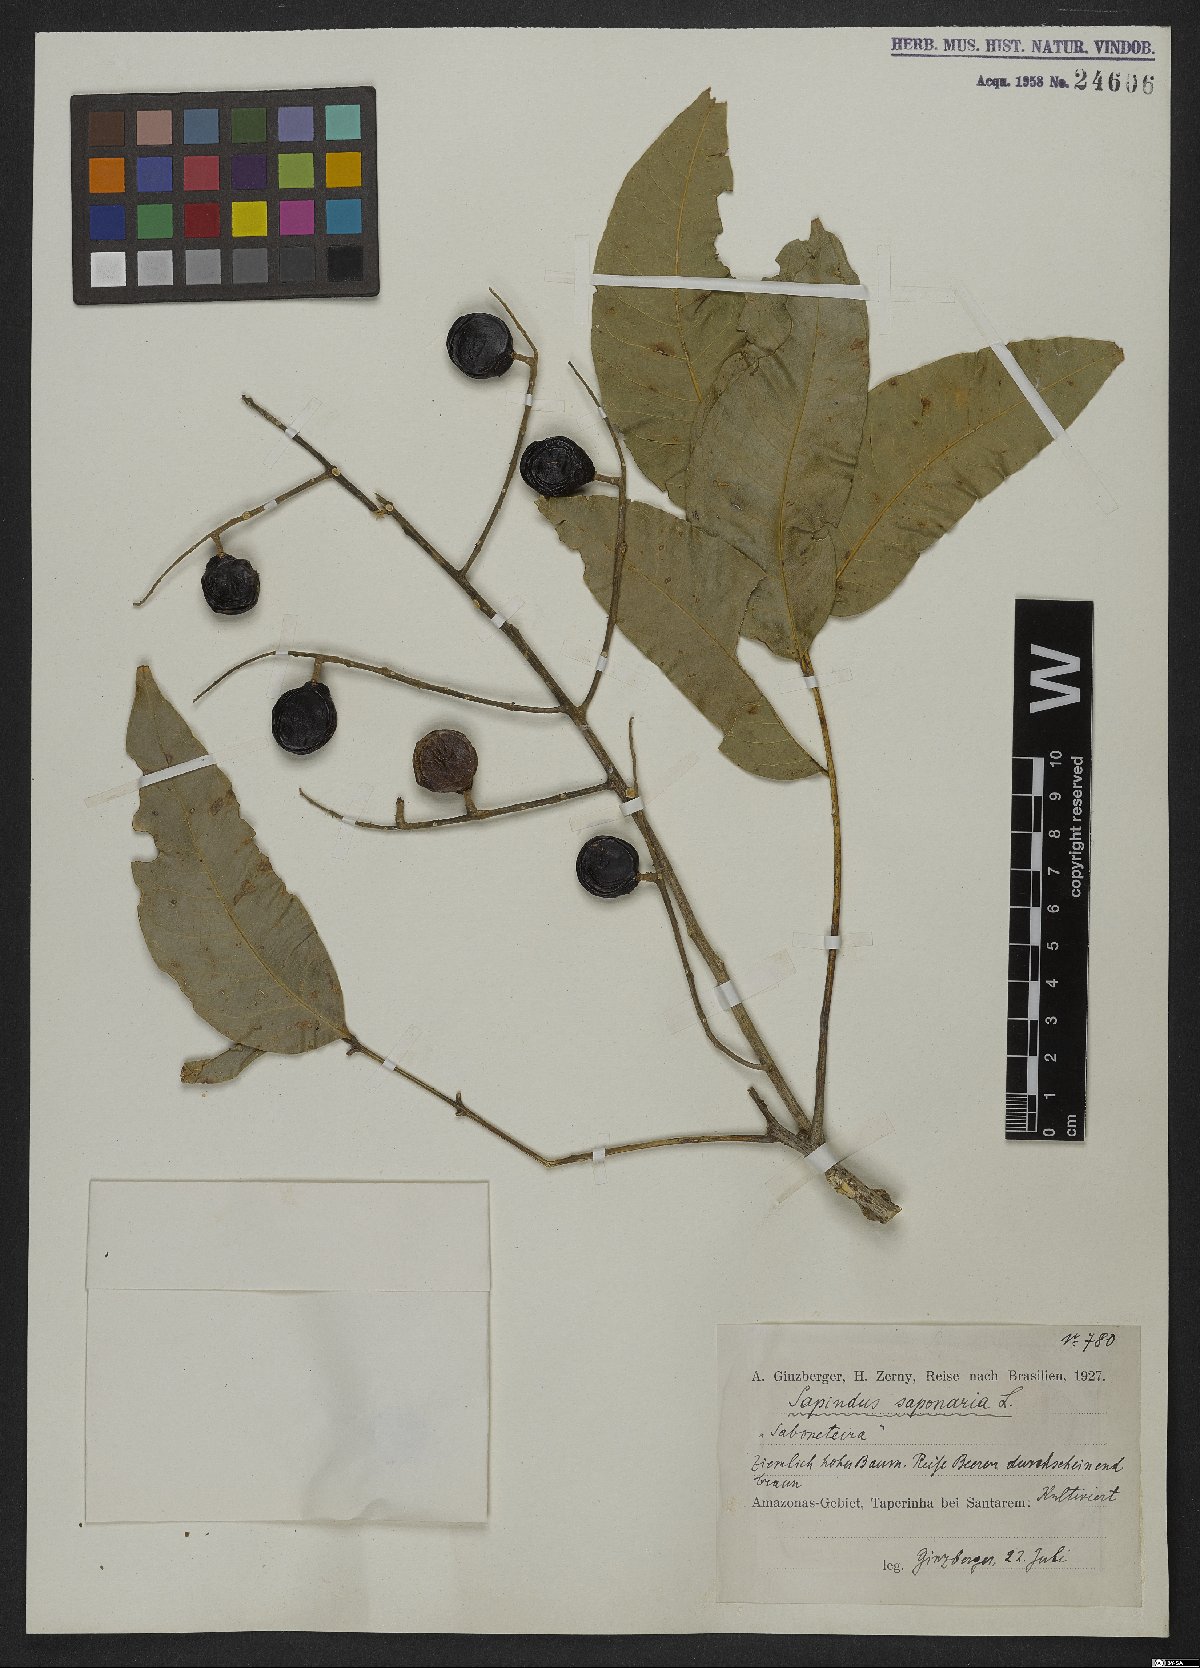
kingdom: Plantae
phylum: Tracheophyta
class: Magnoliopsida
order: Sapindales
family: Sapindaceae
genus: Sapindus
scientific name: Sapindus saponaria
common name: Wingleaf soapberry
